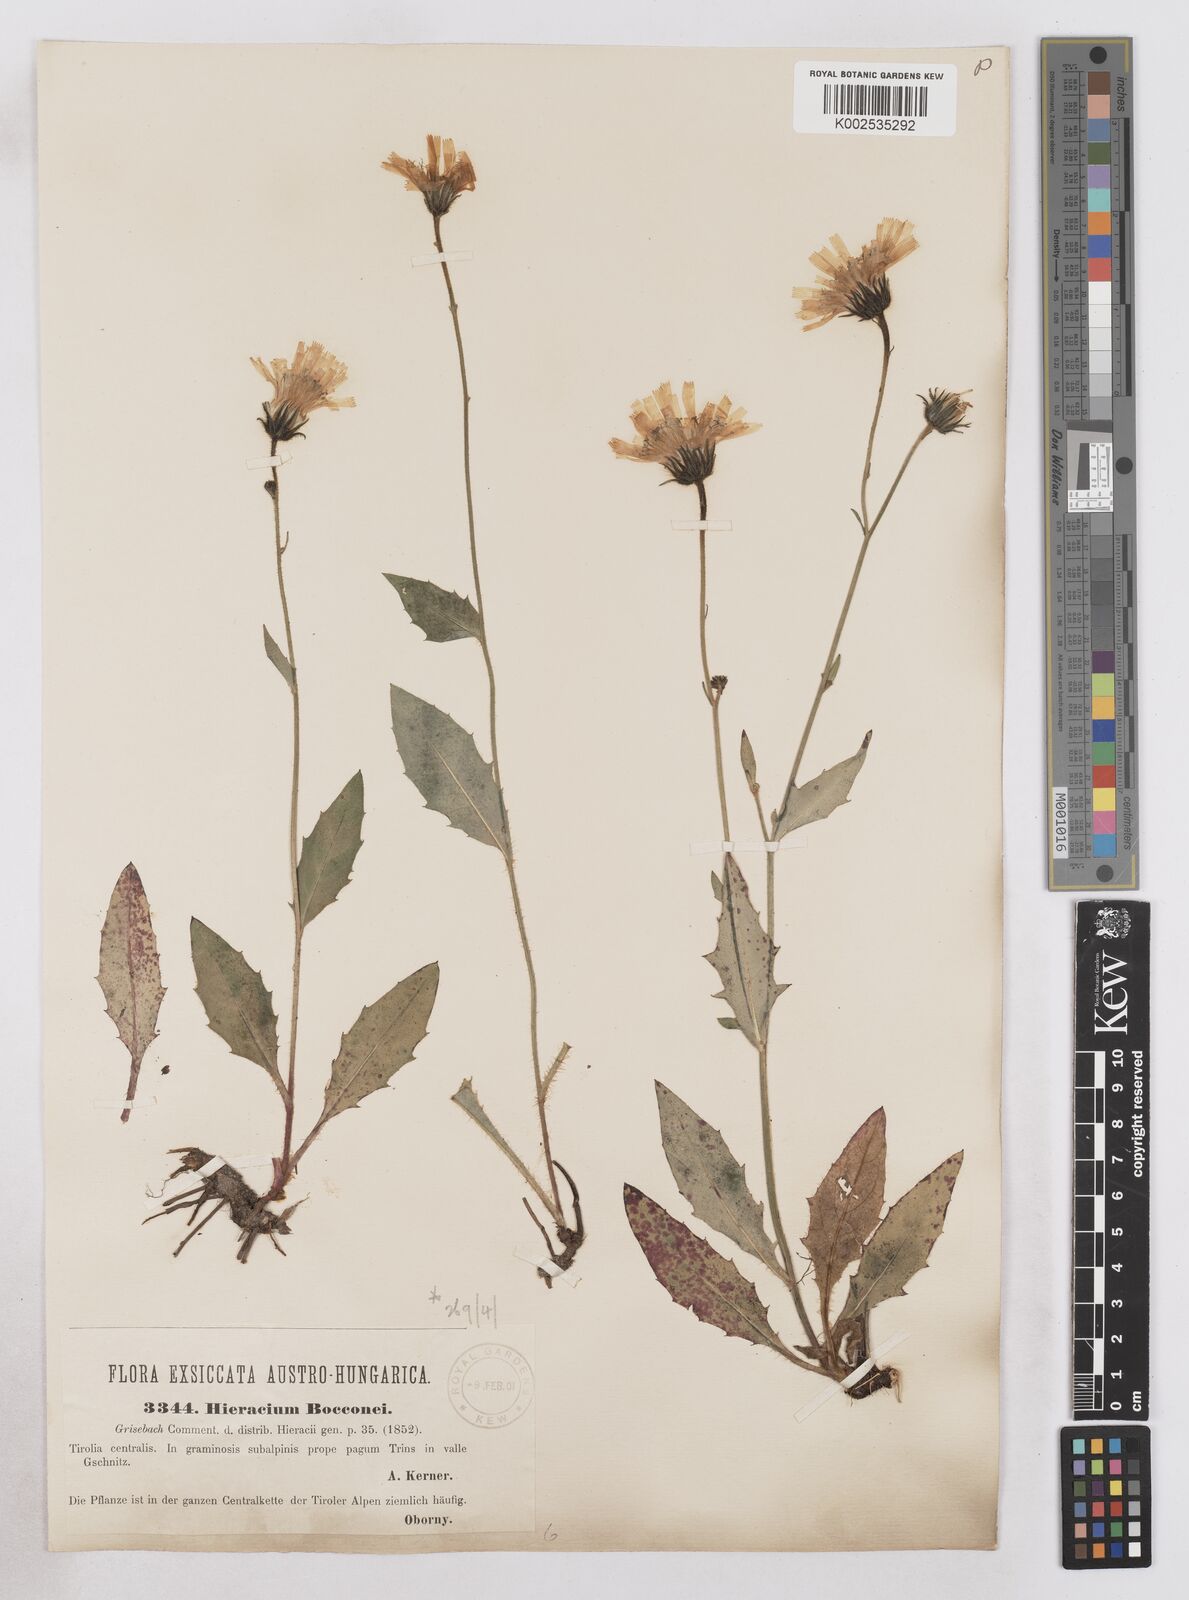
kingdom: Plantae
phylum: Tracheophyta
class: Magnoliopsida
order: Asterales
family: Asteraceae
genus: Hieracium
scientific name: Hieracium bocconei
